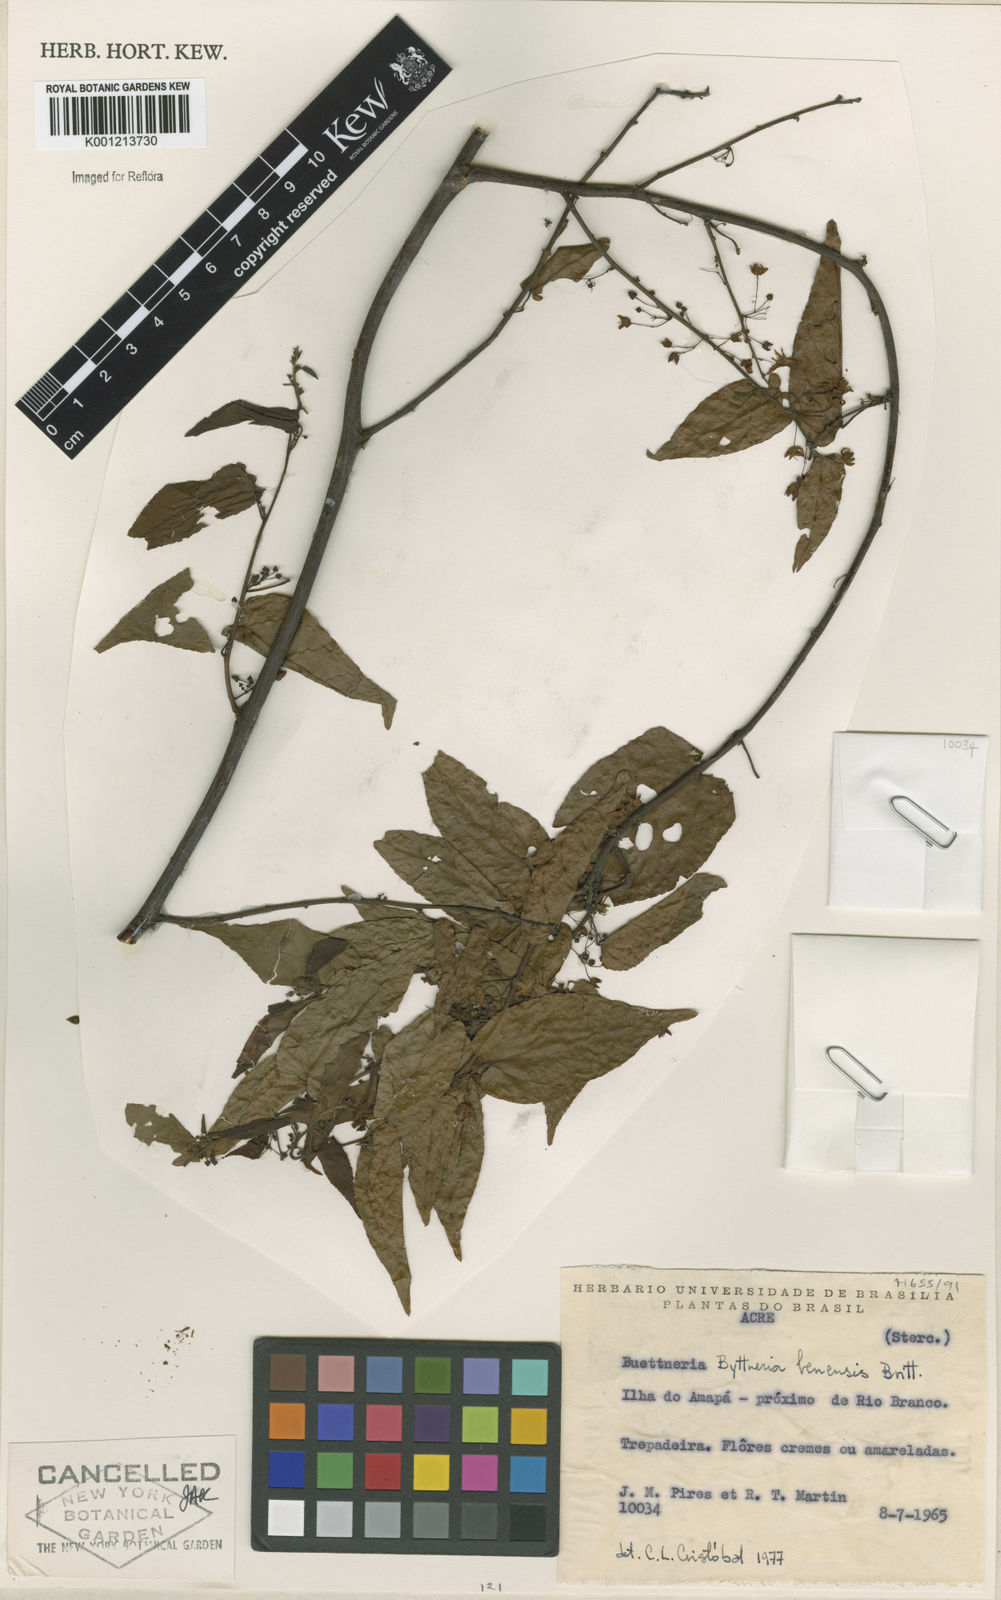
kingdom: Plantae
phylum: Tracheophyta
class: Magnoliopsida
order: Malvales
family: Malvaceae
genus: Byttneria
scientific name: Byttneria benensis
